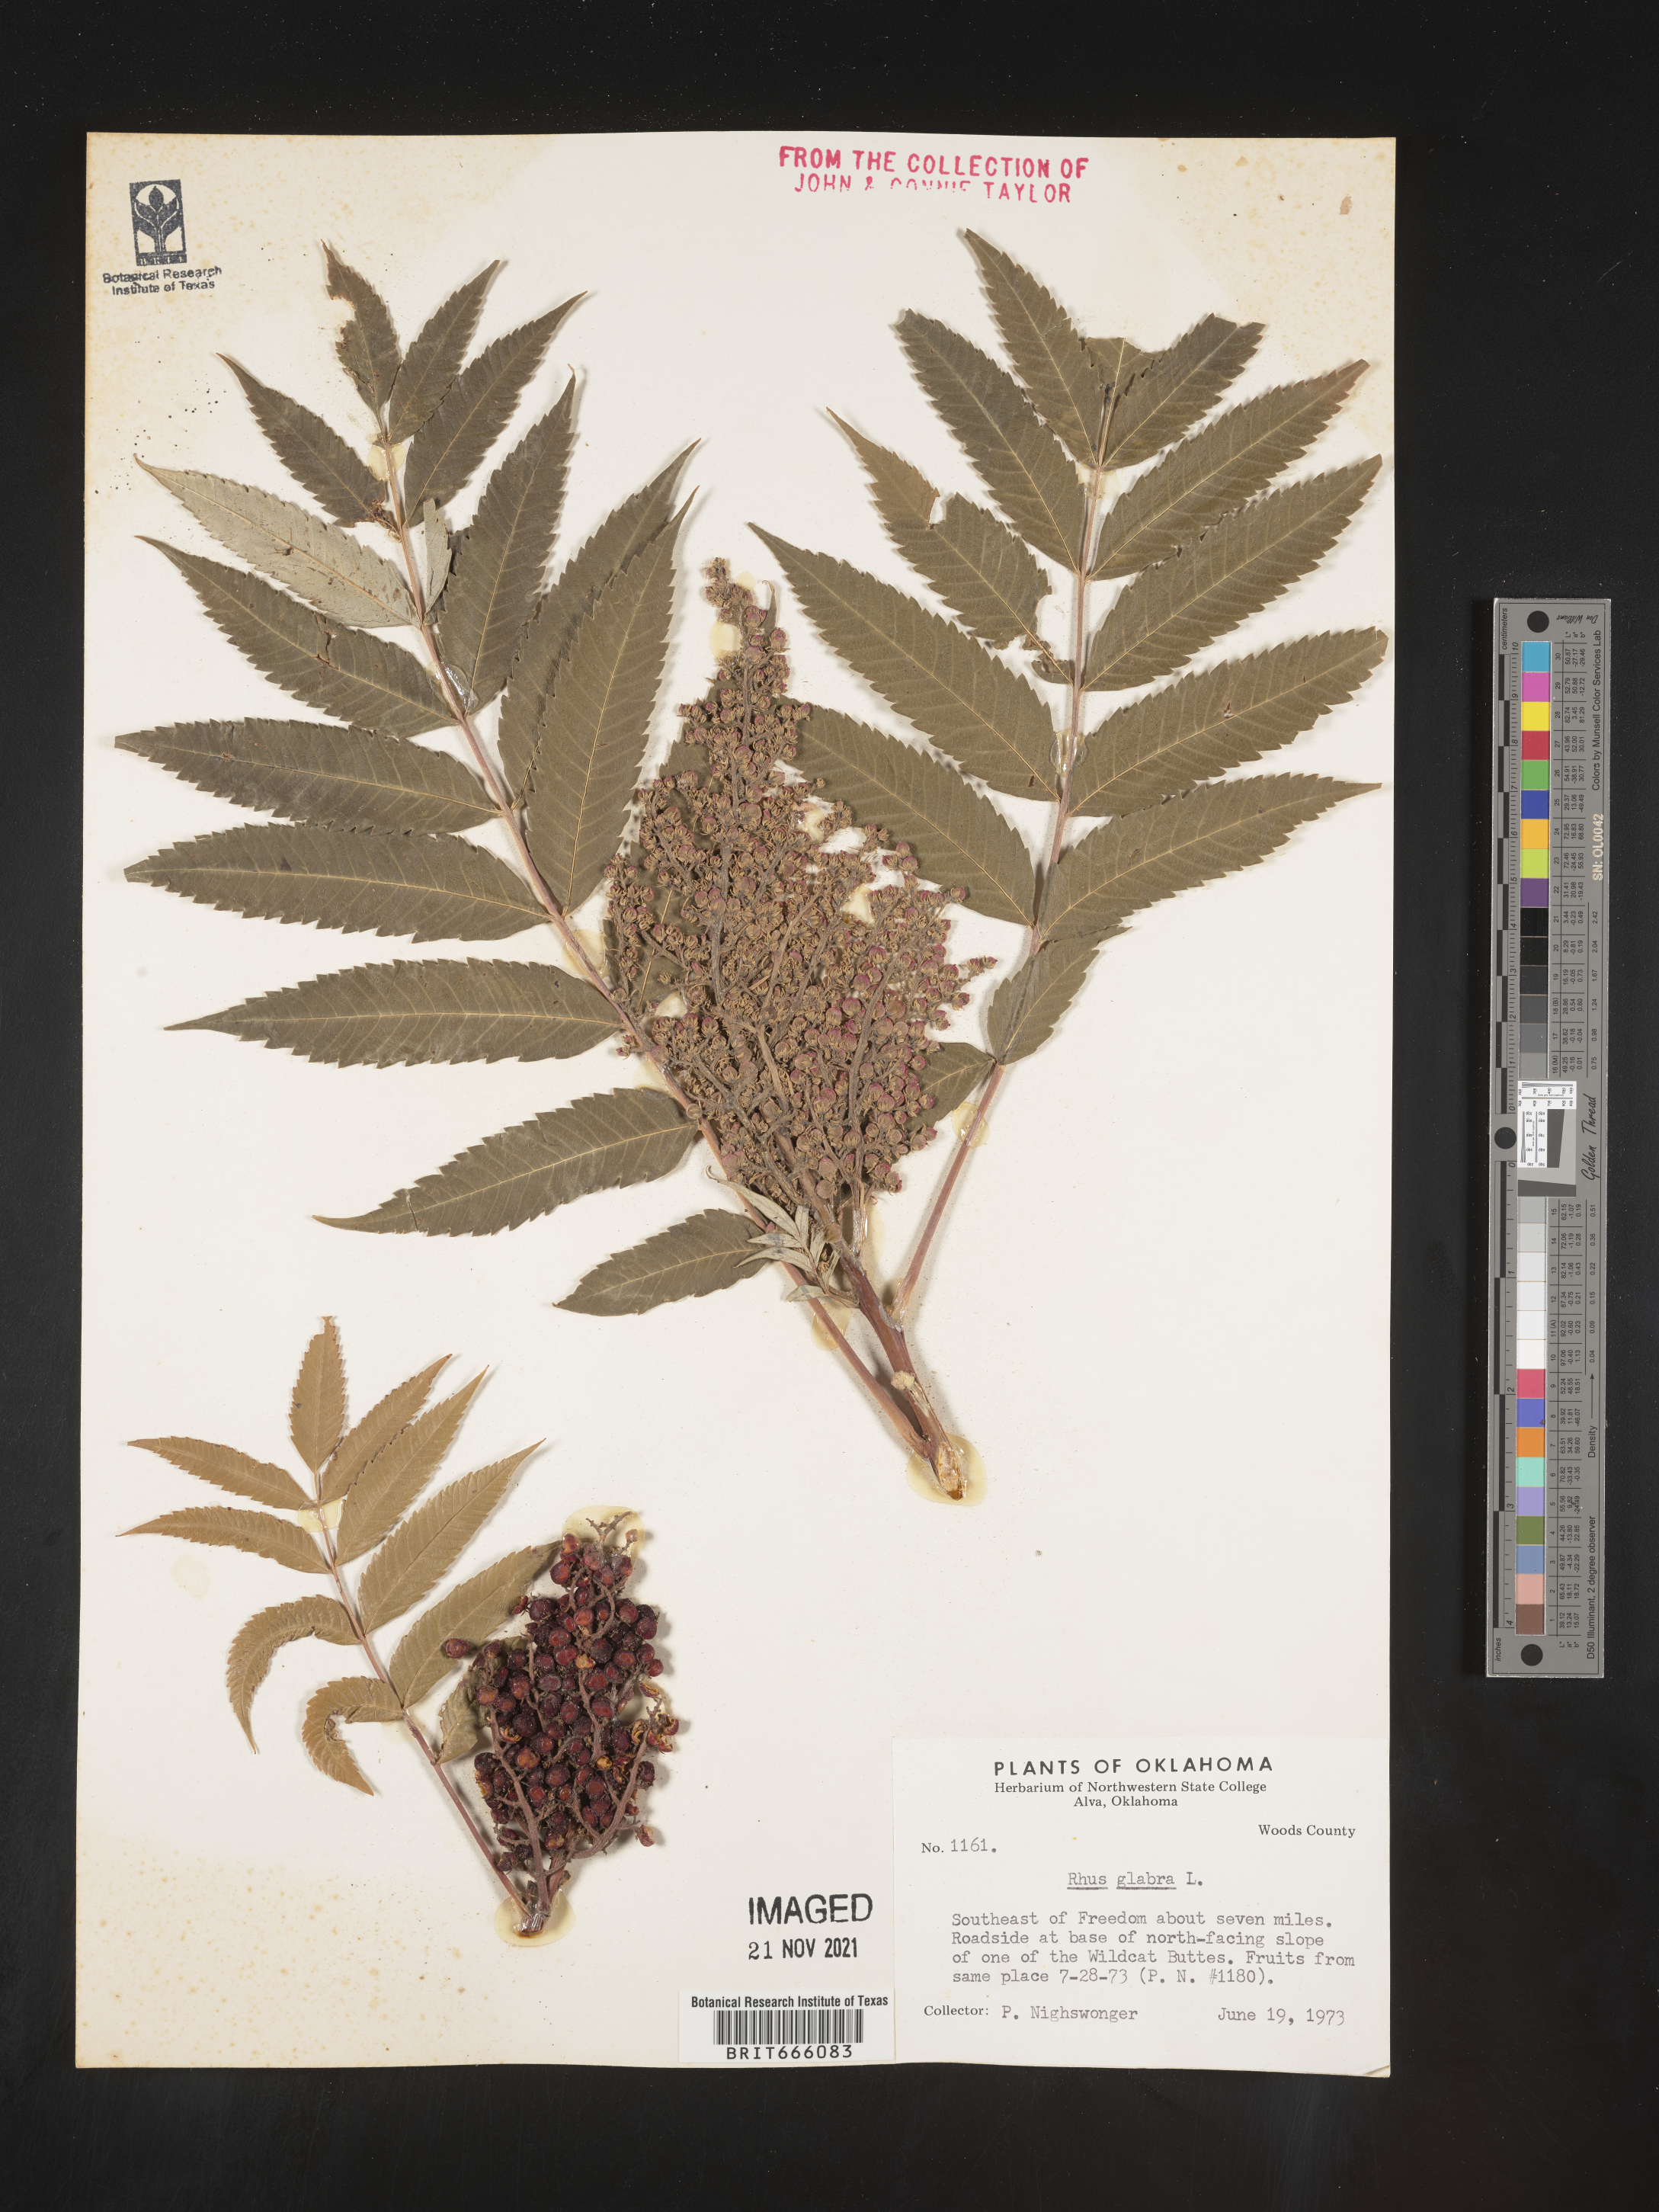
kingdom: Plantae
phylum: Tracheophyta
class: Magnoliopsida
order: Sapindales
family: Anacardiaceae
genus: Rhus
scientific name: Rhus glabra
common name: Scarlet sumac
